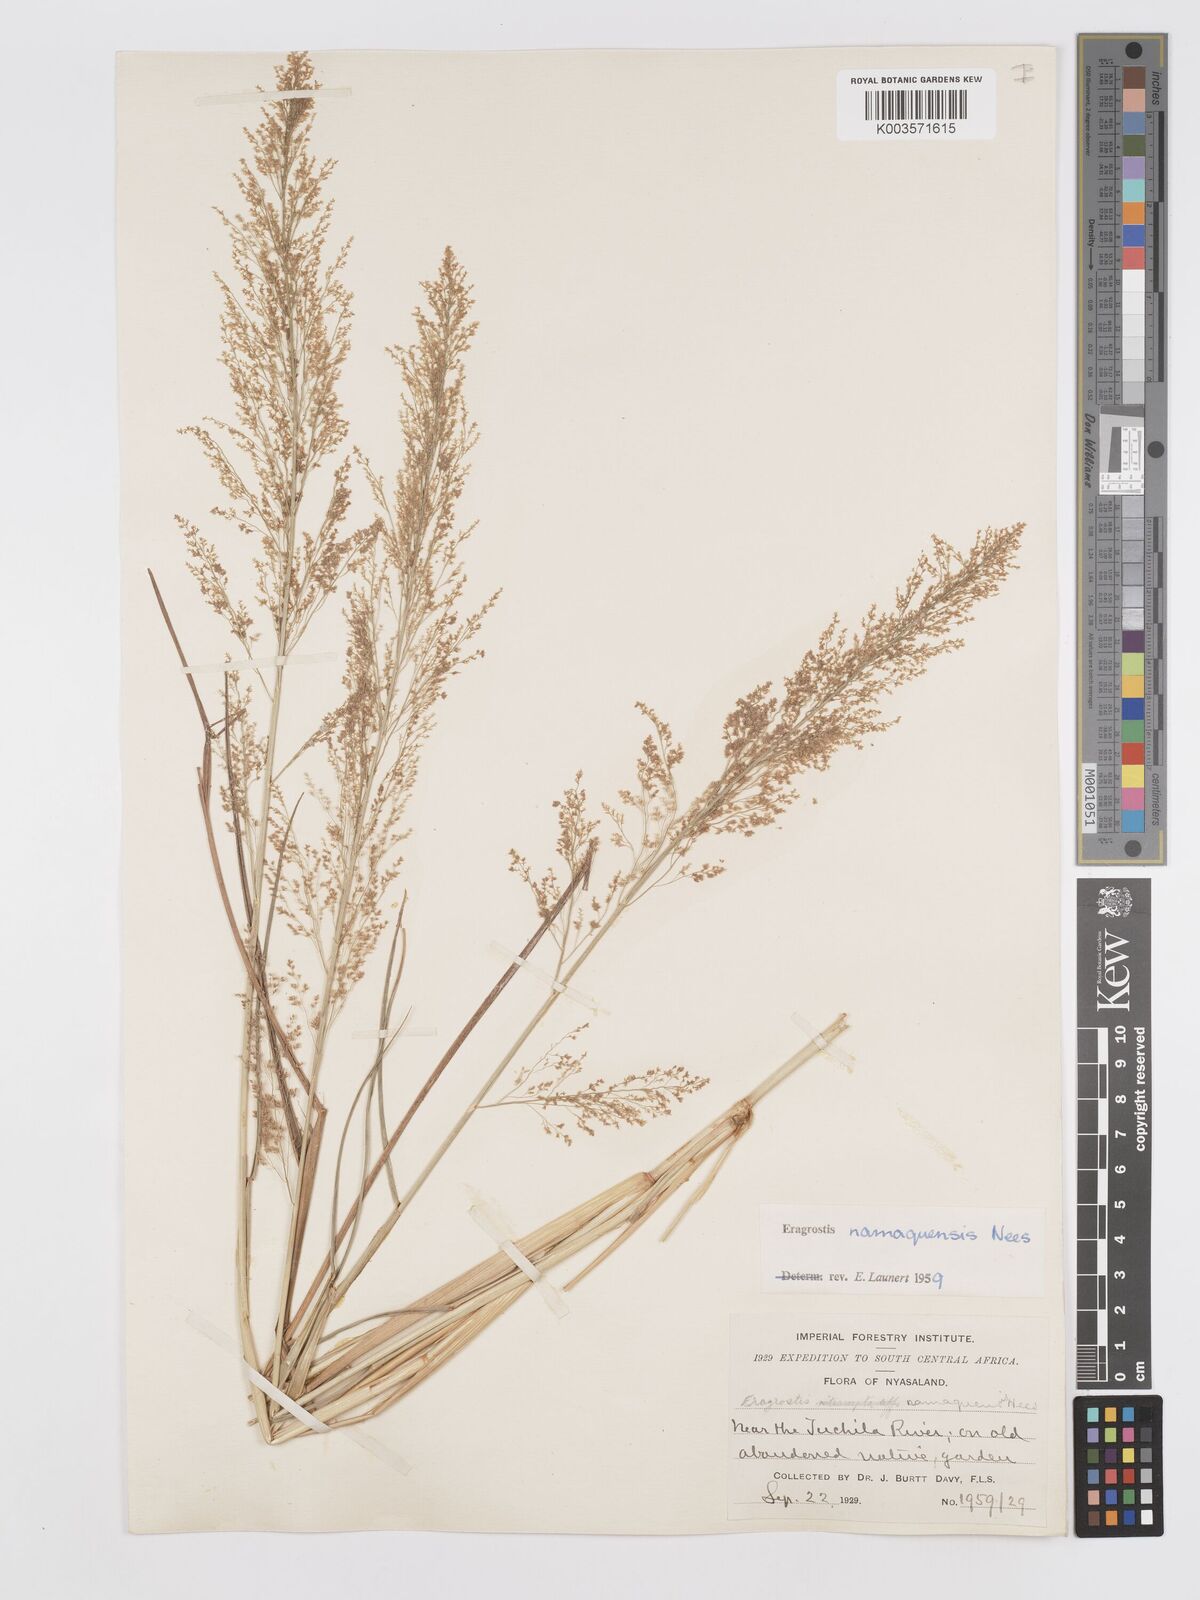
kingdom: Plantae
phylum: Tracheophyta
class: Liliopsida
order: Poales
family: Poaceae
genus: Eragrostis
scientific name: Eragrostis japonica
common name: Pond lovegrass
